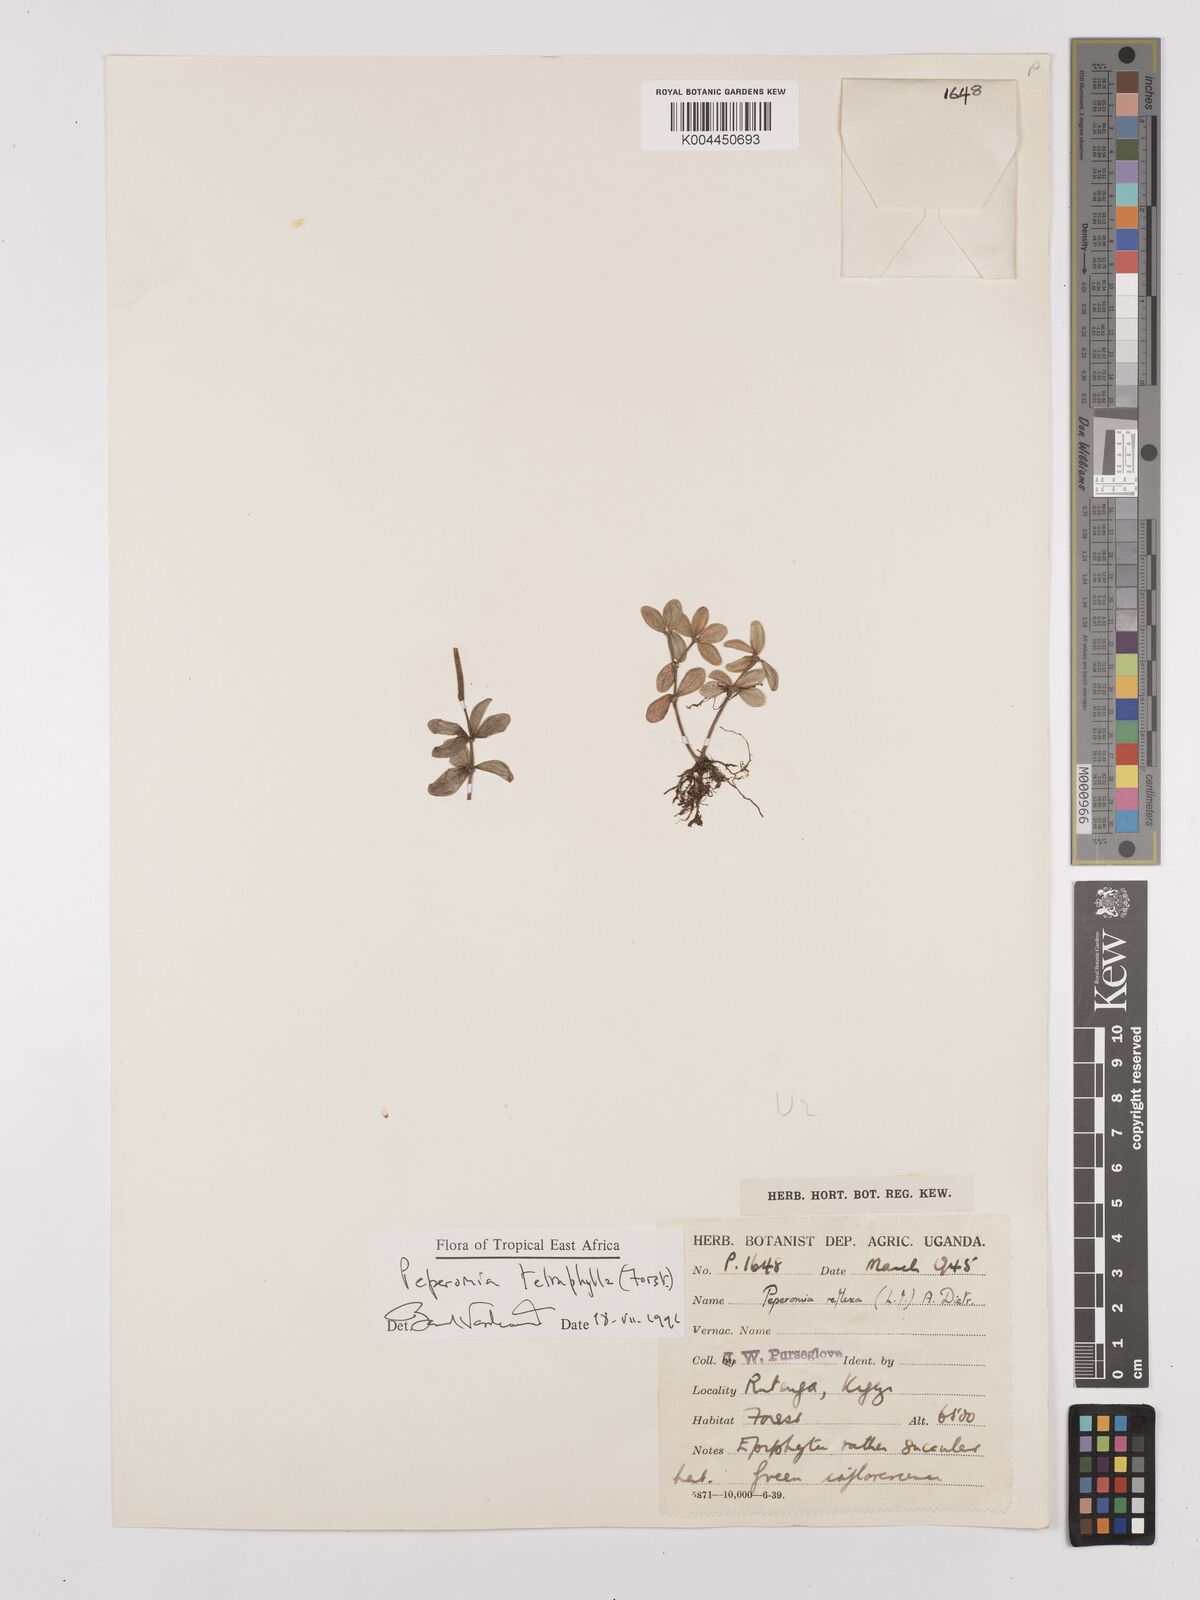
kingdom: Plantae
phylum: Tracheophyta
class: Magnoliopsida
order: Piperales
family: Piperaceae
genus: Peperomia
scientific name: Peperomia tetraphylla
